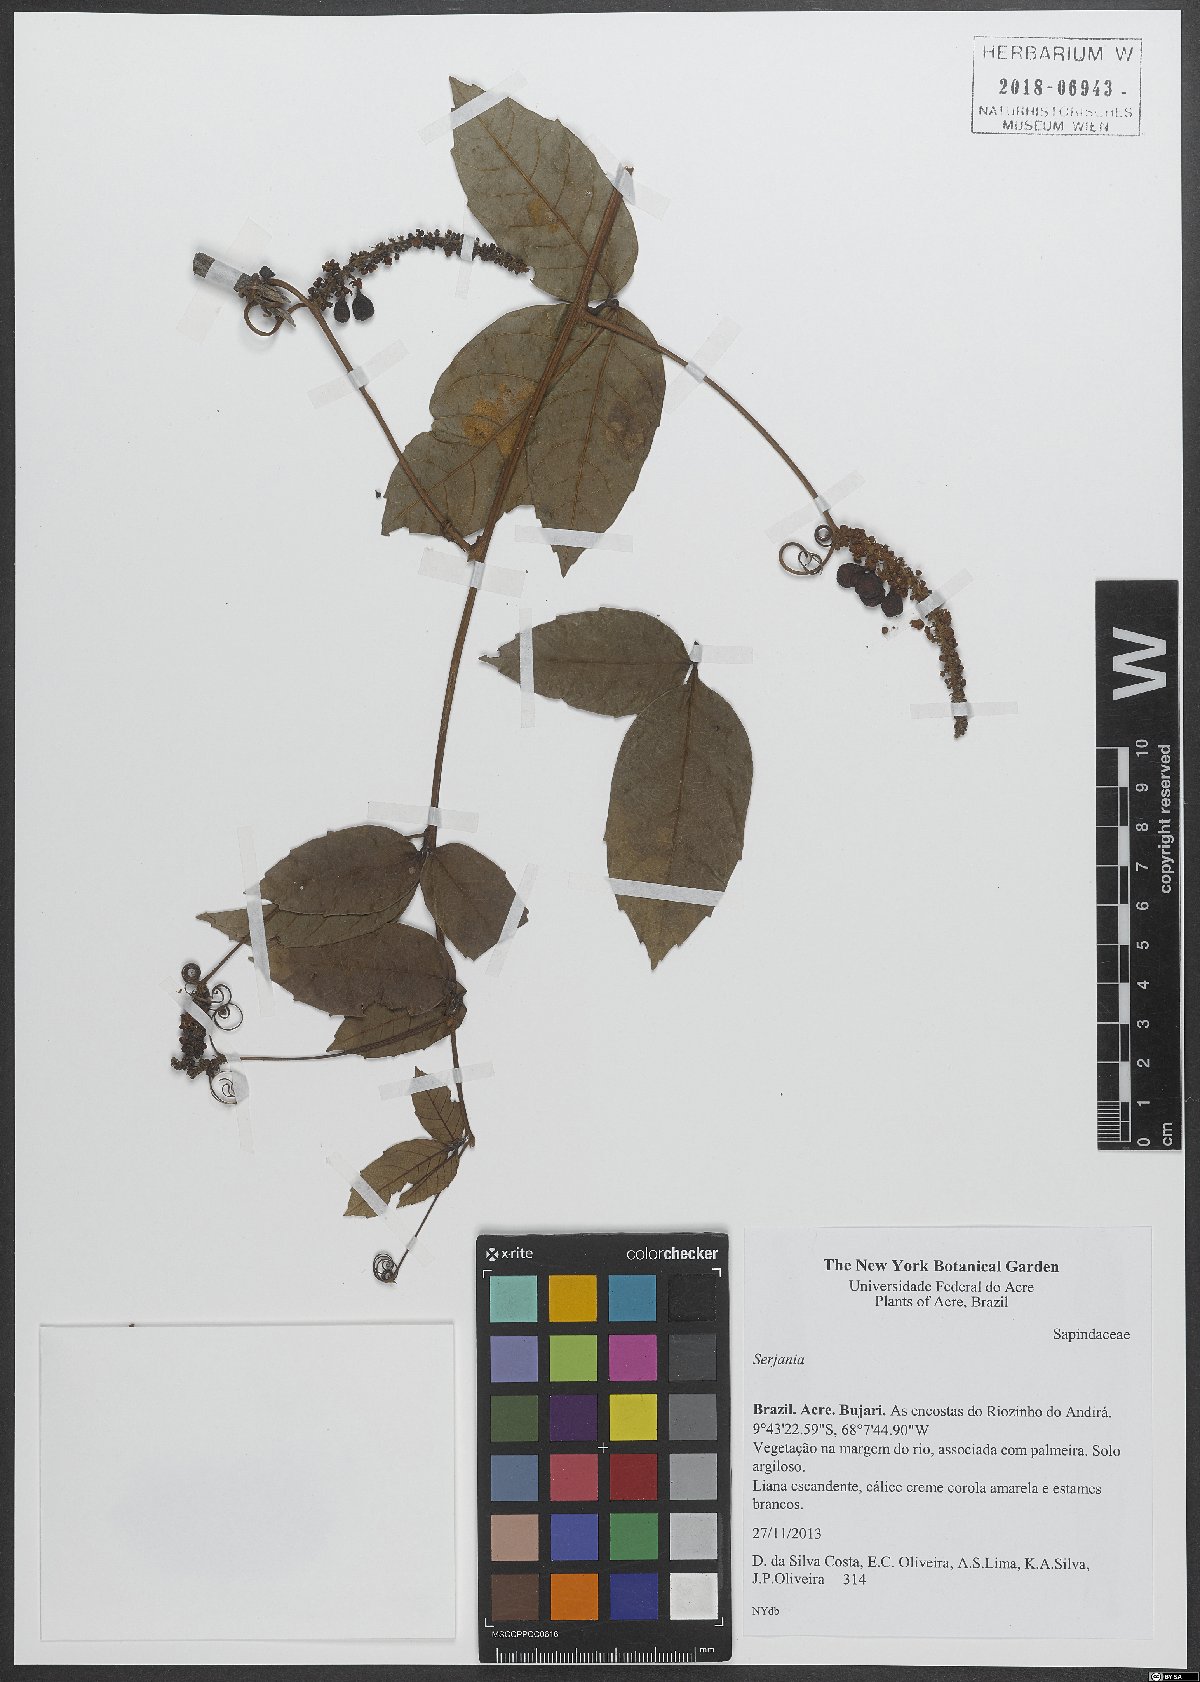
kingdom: Plantae
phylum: Tracheophyta
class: Magnoliopsida
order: Sapindales
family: Sapindaceae
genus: Serjania
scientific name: Serjania
